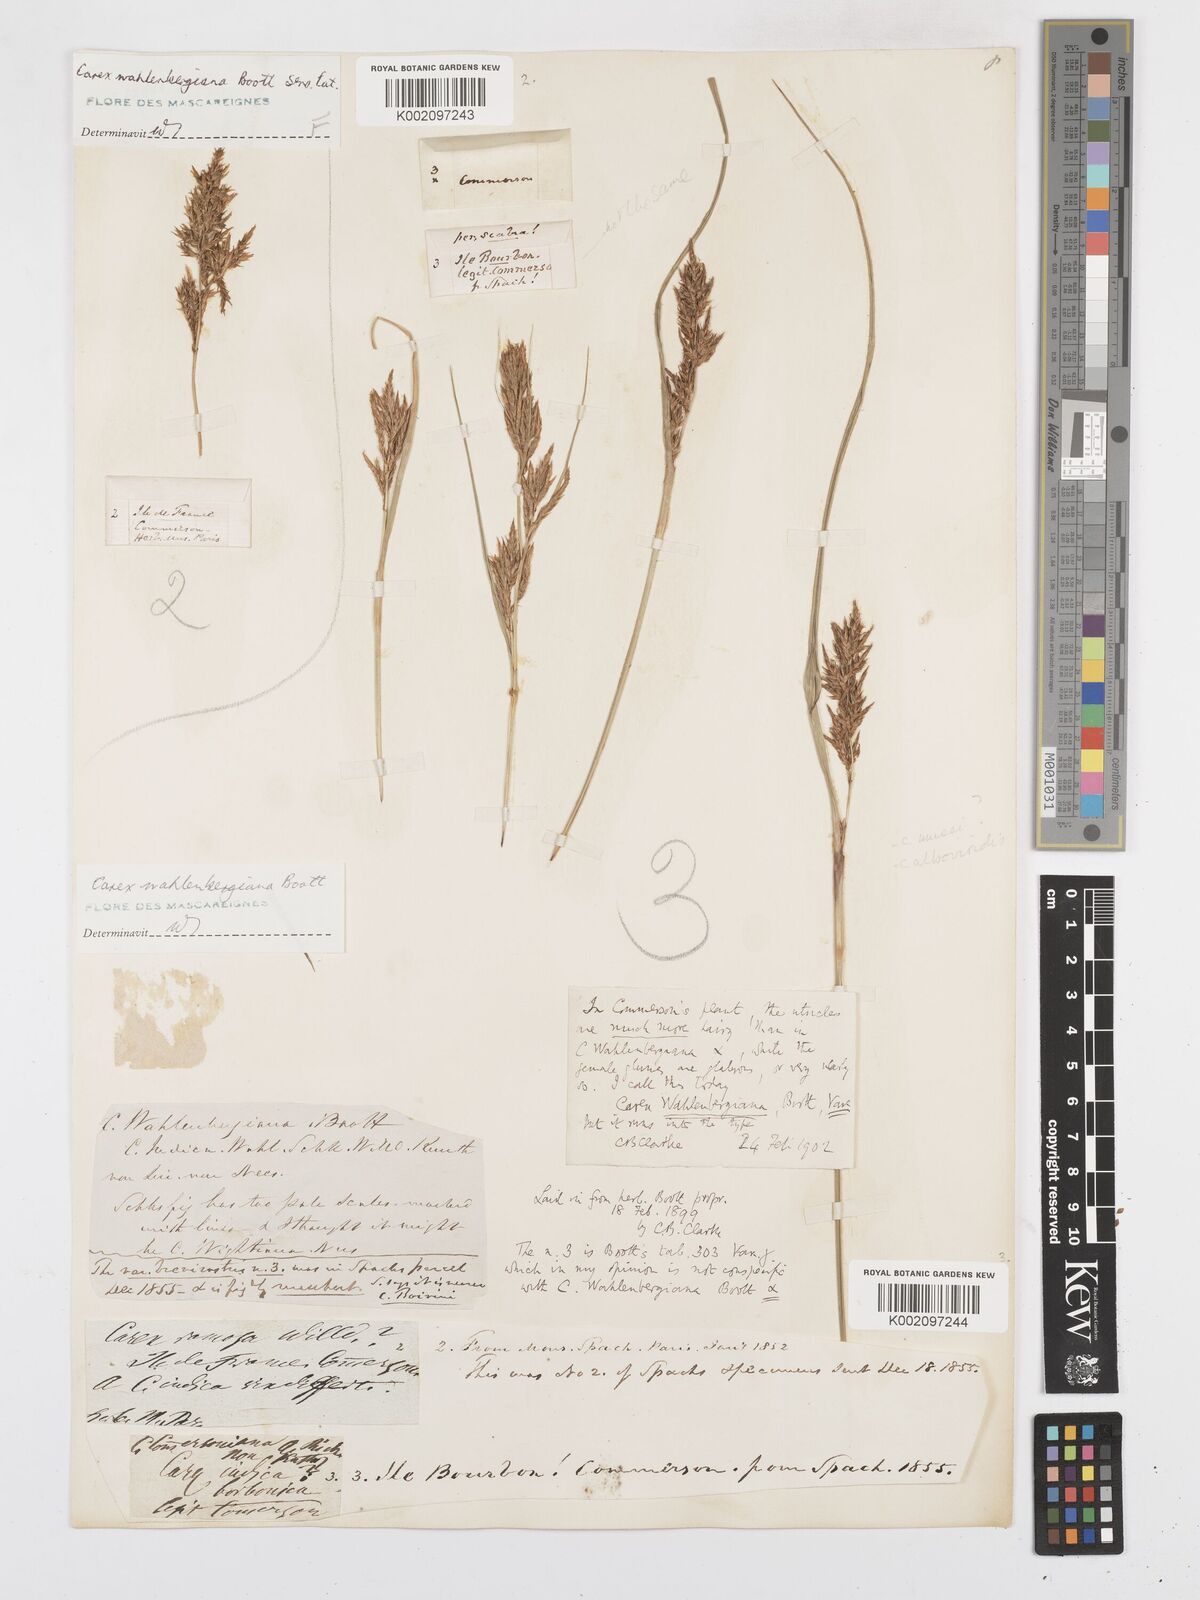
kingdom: Plantae
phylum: Tracheophyta
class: Liliopsida
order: Poales
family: Cyperaceae
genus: Carex
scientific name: Carex wahlenbergiana
